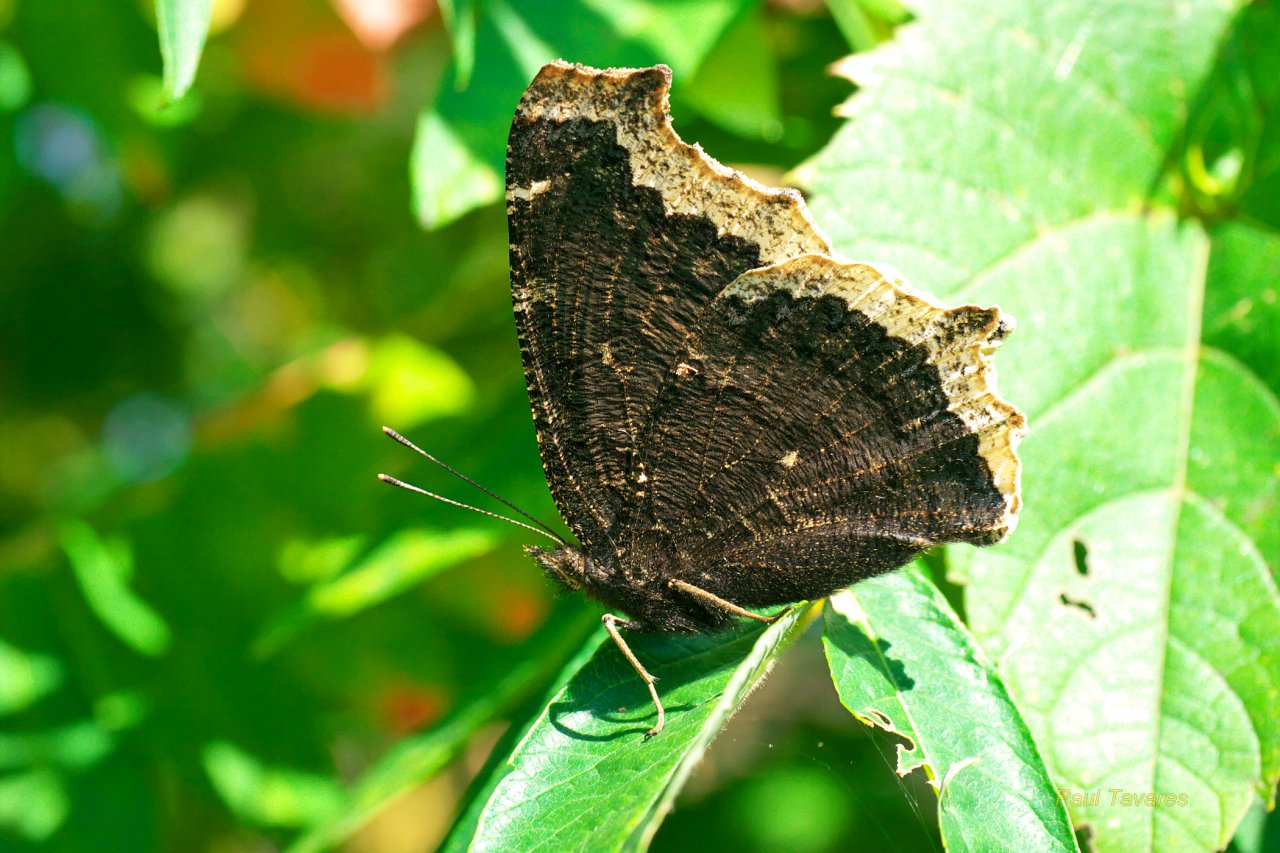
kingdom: Animalia
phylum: Arthropoda
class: Insecta
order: Lepidoptera
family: Nymphalidae
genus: Nymphalis
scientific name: Nymphalis antiopa
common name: Mourning Cloak
